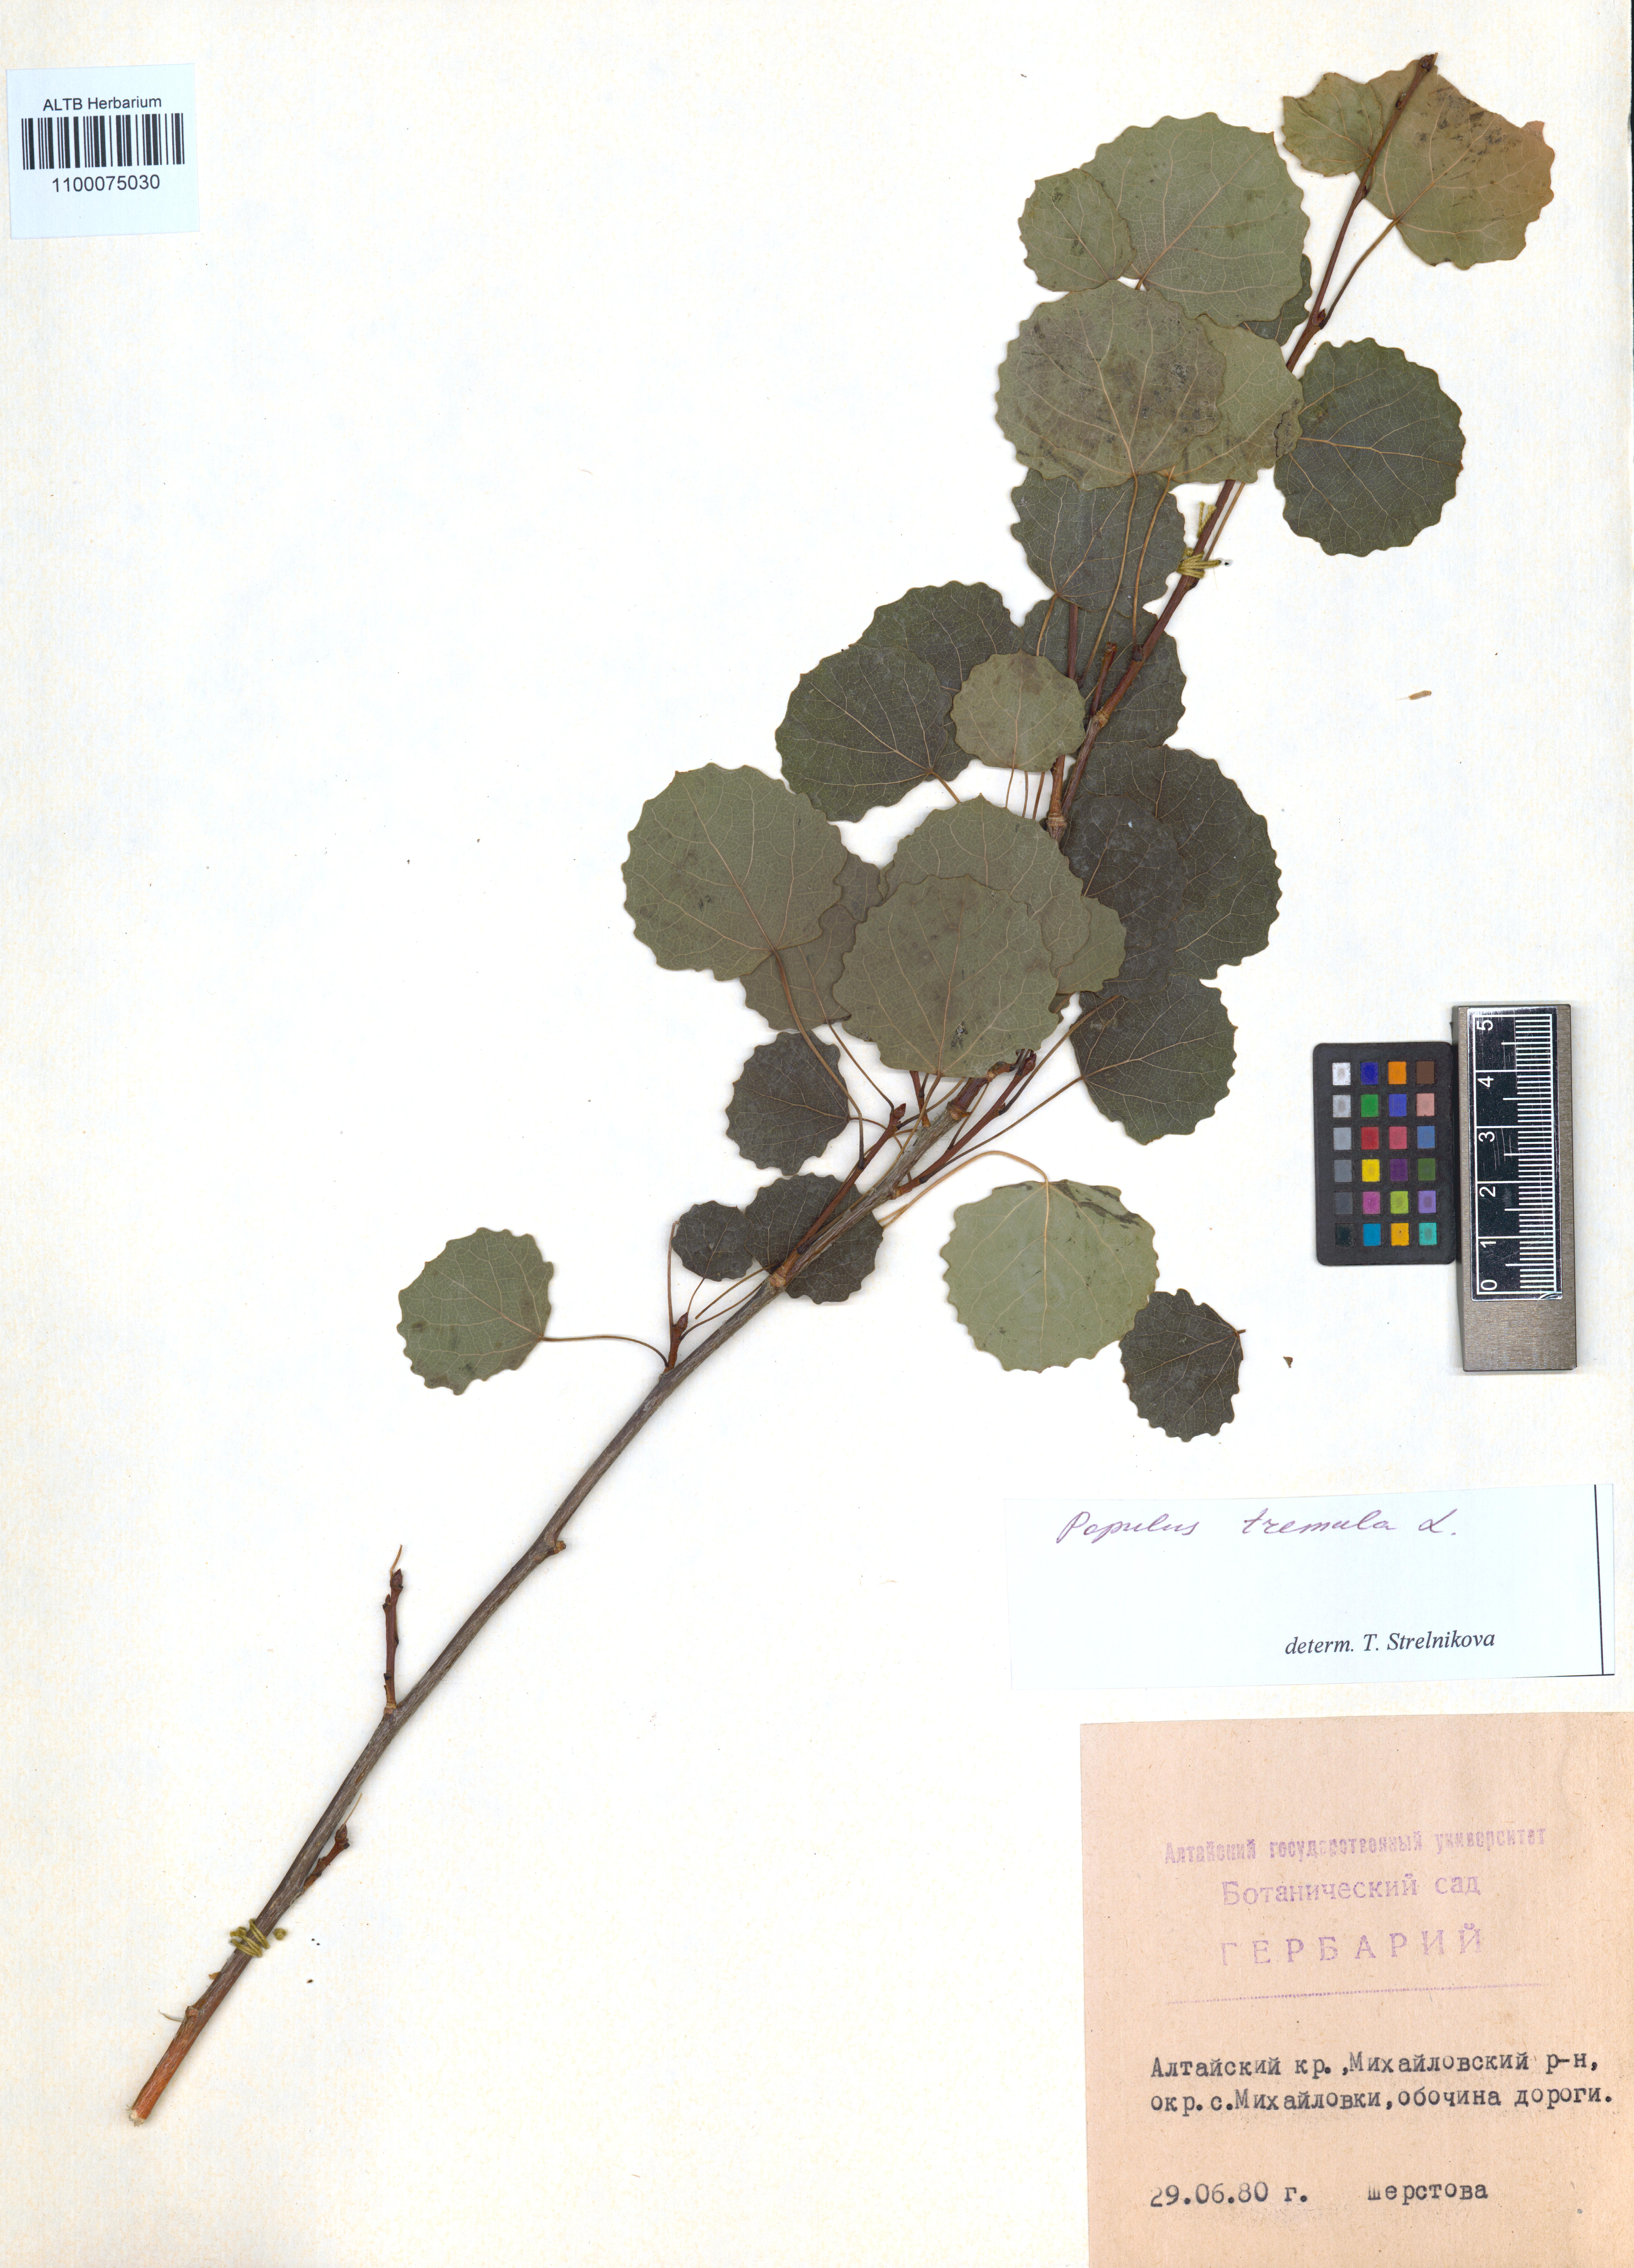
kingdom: Plantae
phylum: Tracheophyta
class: Magnoliopsida
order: Malpighiales
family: Salicaceae
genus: Populus
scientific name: Populus tremula
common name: European aspen
